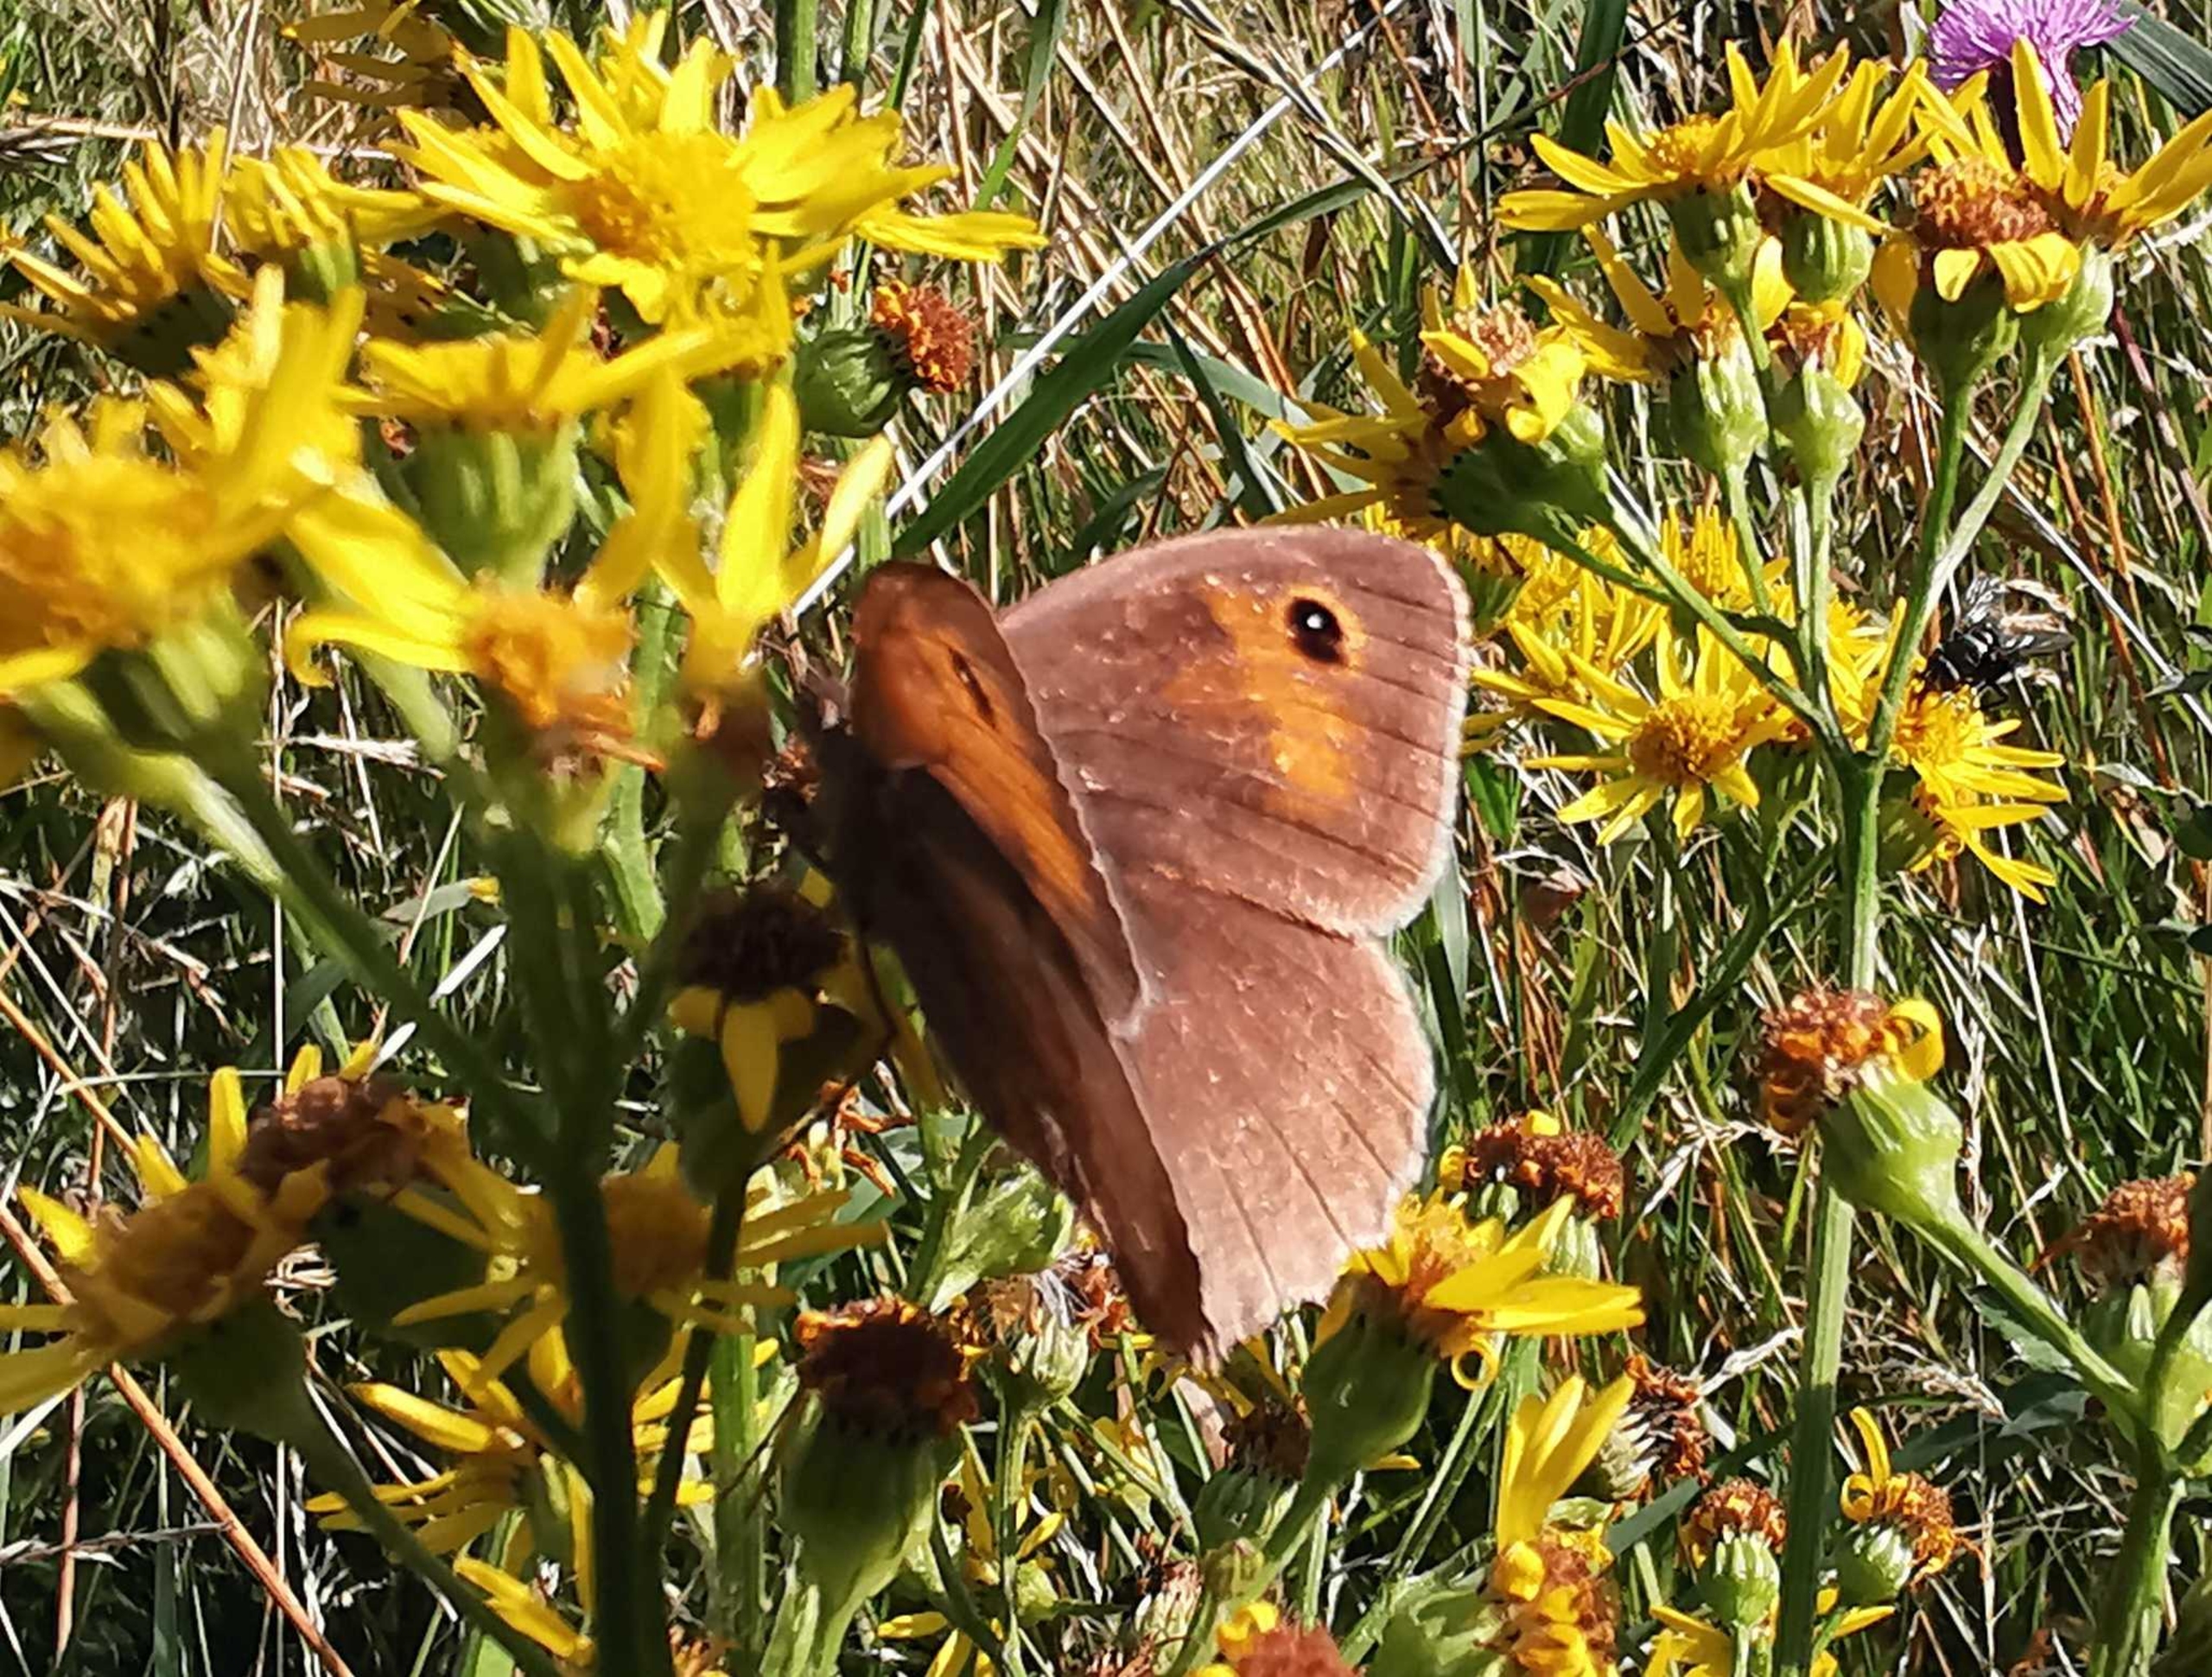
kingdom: Animalia
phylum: Arthropoda
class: Insecta
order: Lepidoptera
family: Nymphalidae
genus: Maniola
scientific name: Maniola jurtina
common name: Græsrandøje
